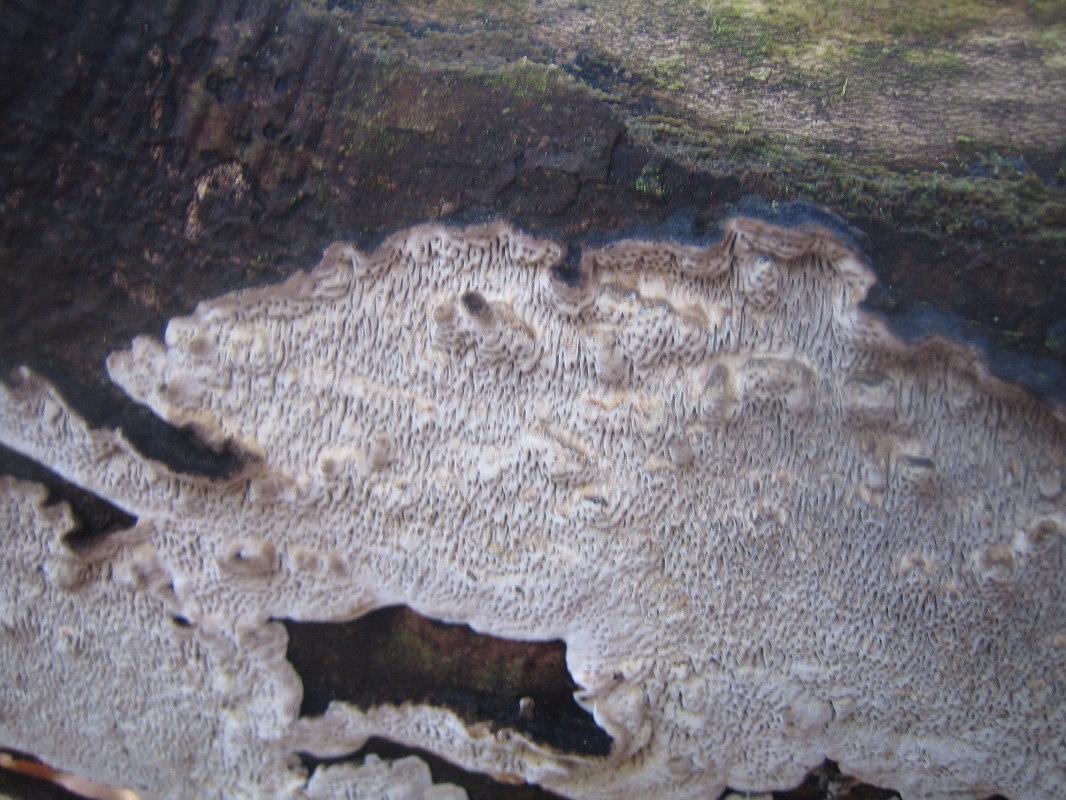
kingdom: Fungi
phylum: Basidiomycota
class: Agaricomycetes
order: Polyporales
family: Polyporaceae
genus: Podofomes
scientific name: Podofomes mollis
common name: blød begporesvamp
